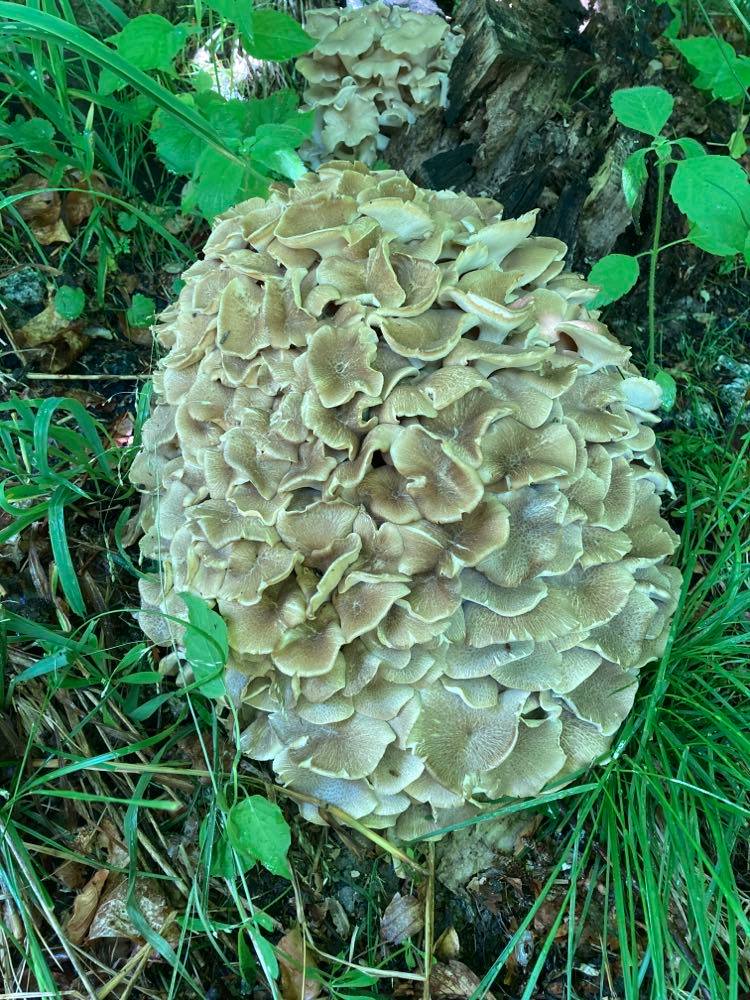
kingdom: Fungi
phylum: Basidiomycota
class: Agaricomycetes
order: Polyporales
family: Polyporaceae
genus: Polyporus
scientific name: Polyporus umbellatus
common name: skærmformet stilkporesvamp
